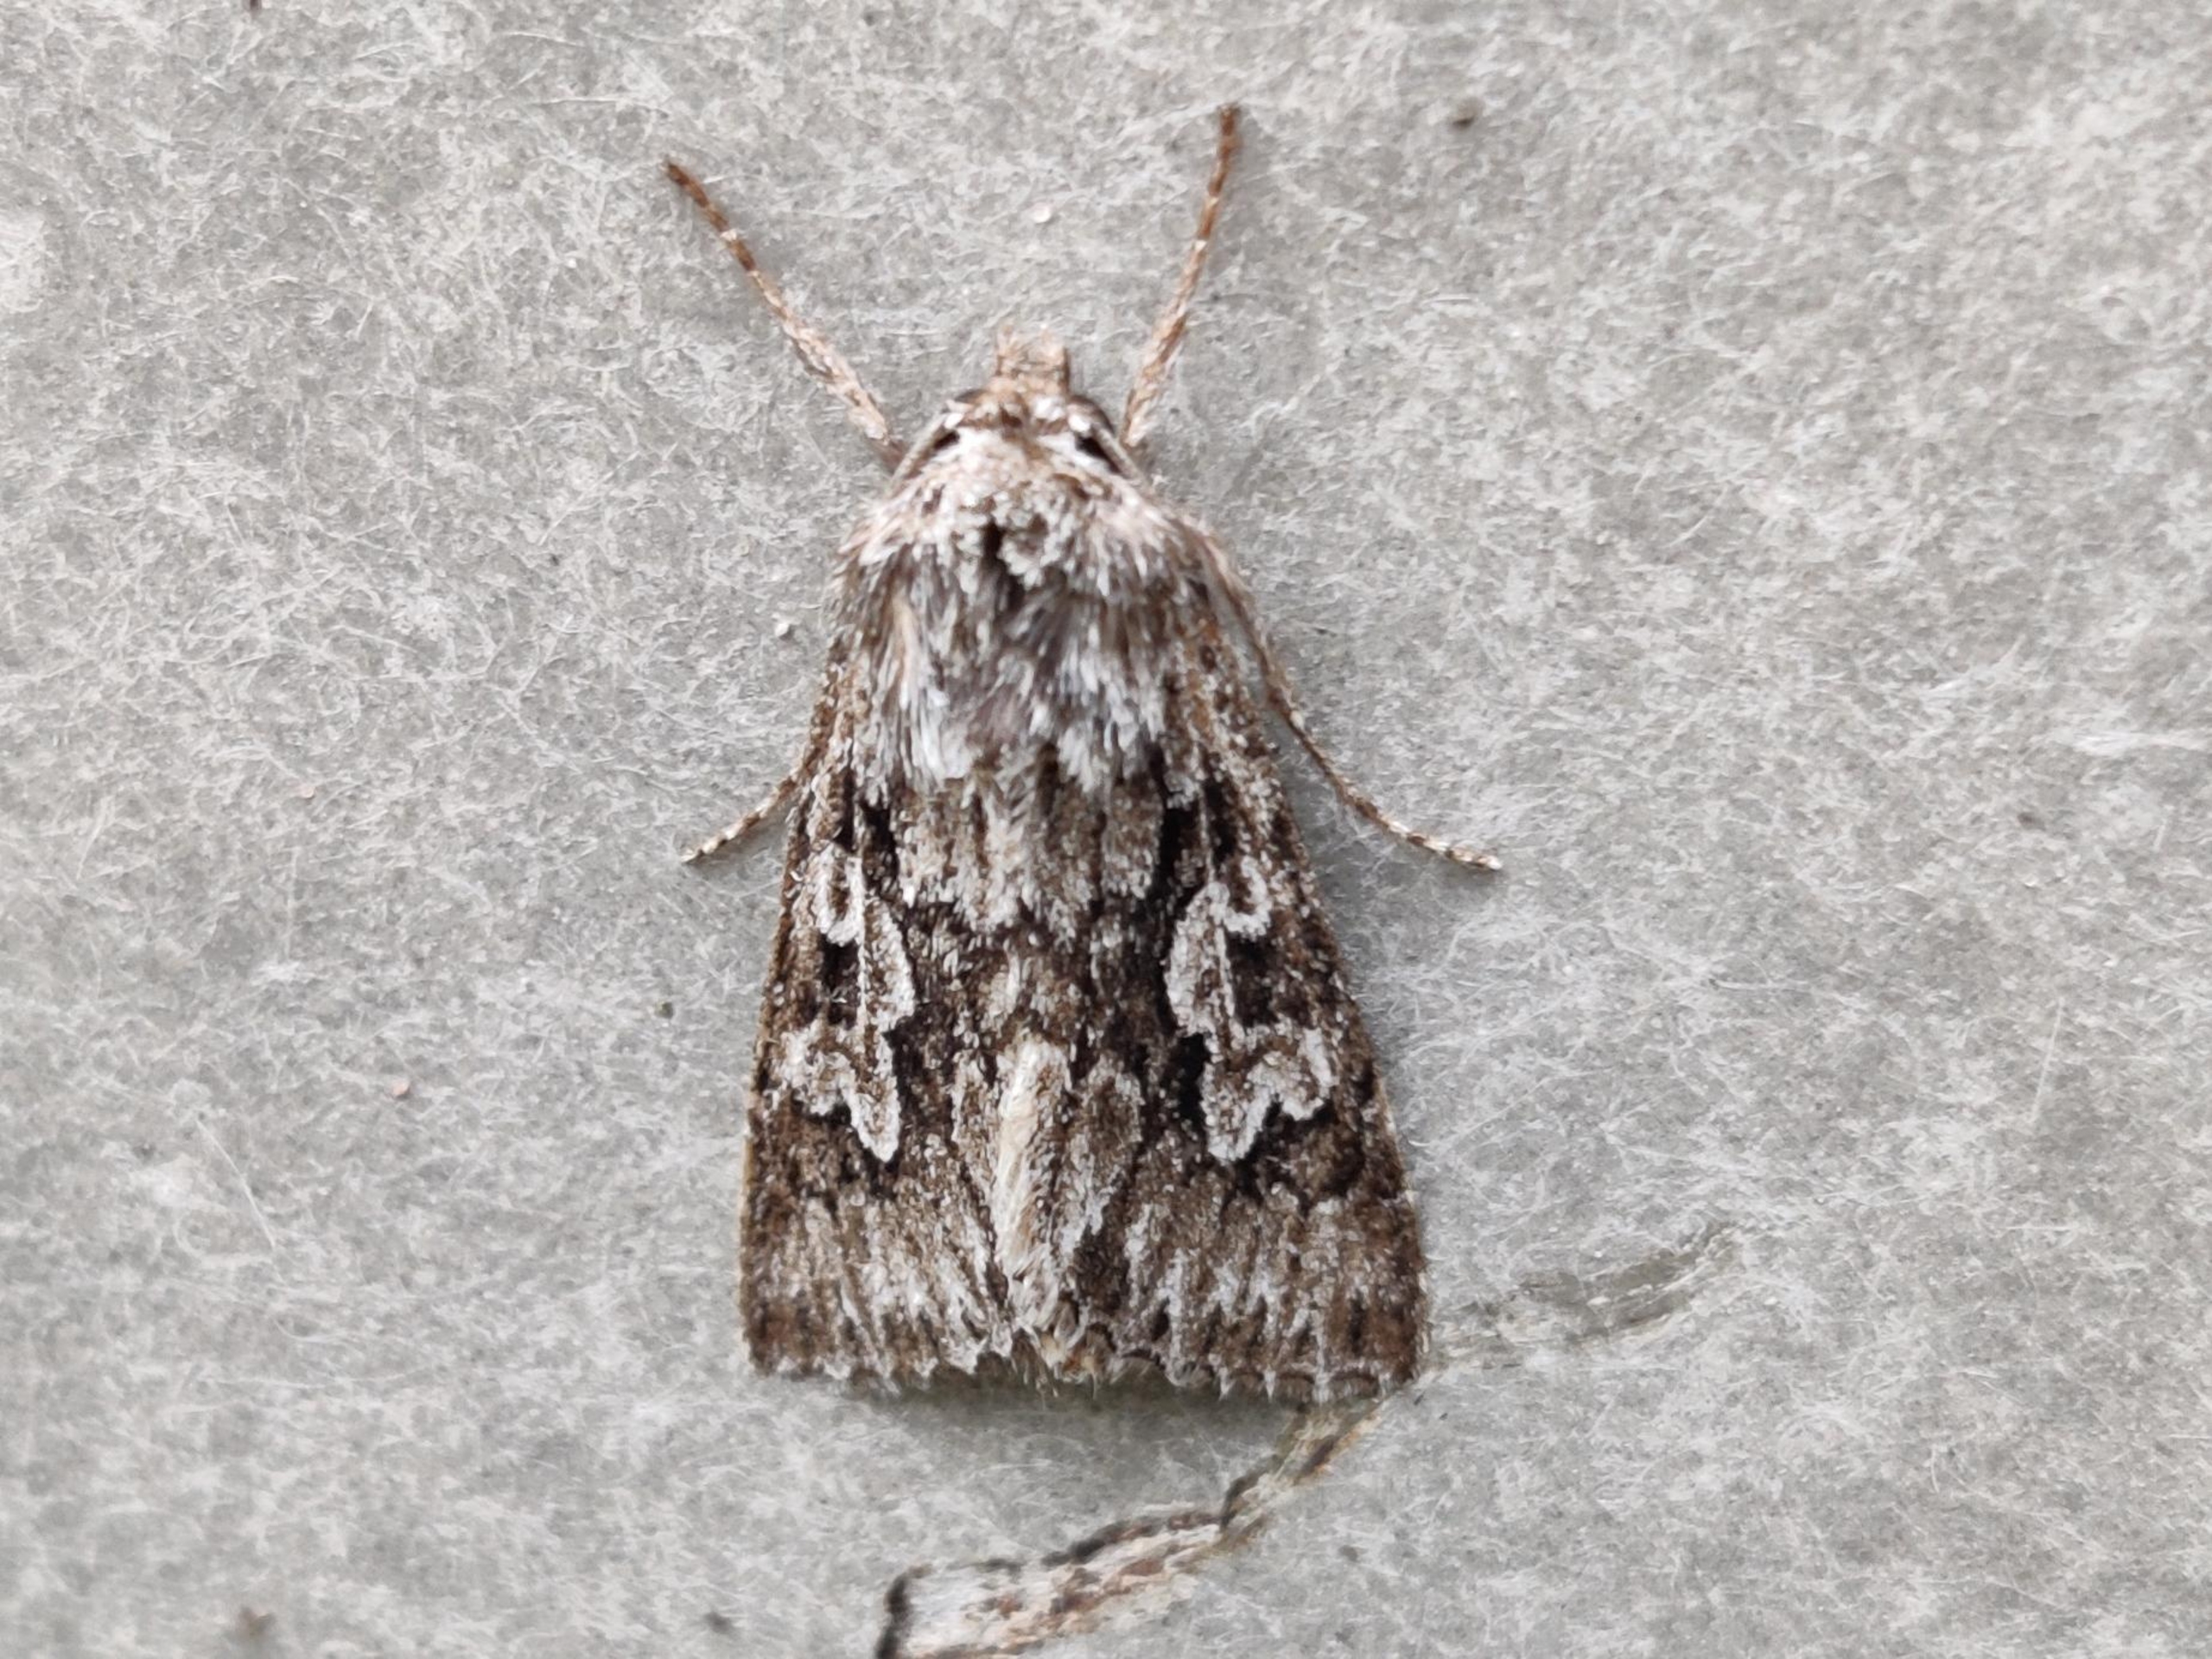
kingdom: Animalia
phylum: Arthropoda
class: Insecta
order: Lepidoptera
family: Noctuidae
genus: Xylocampa
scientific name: Xylocampa areola
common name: Gedeblad-ugle
